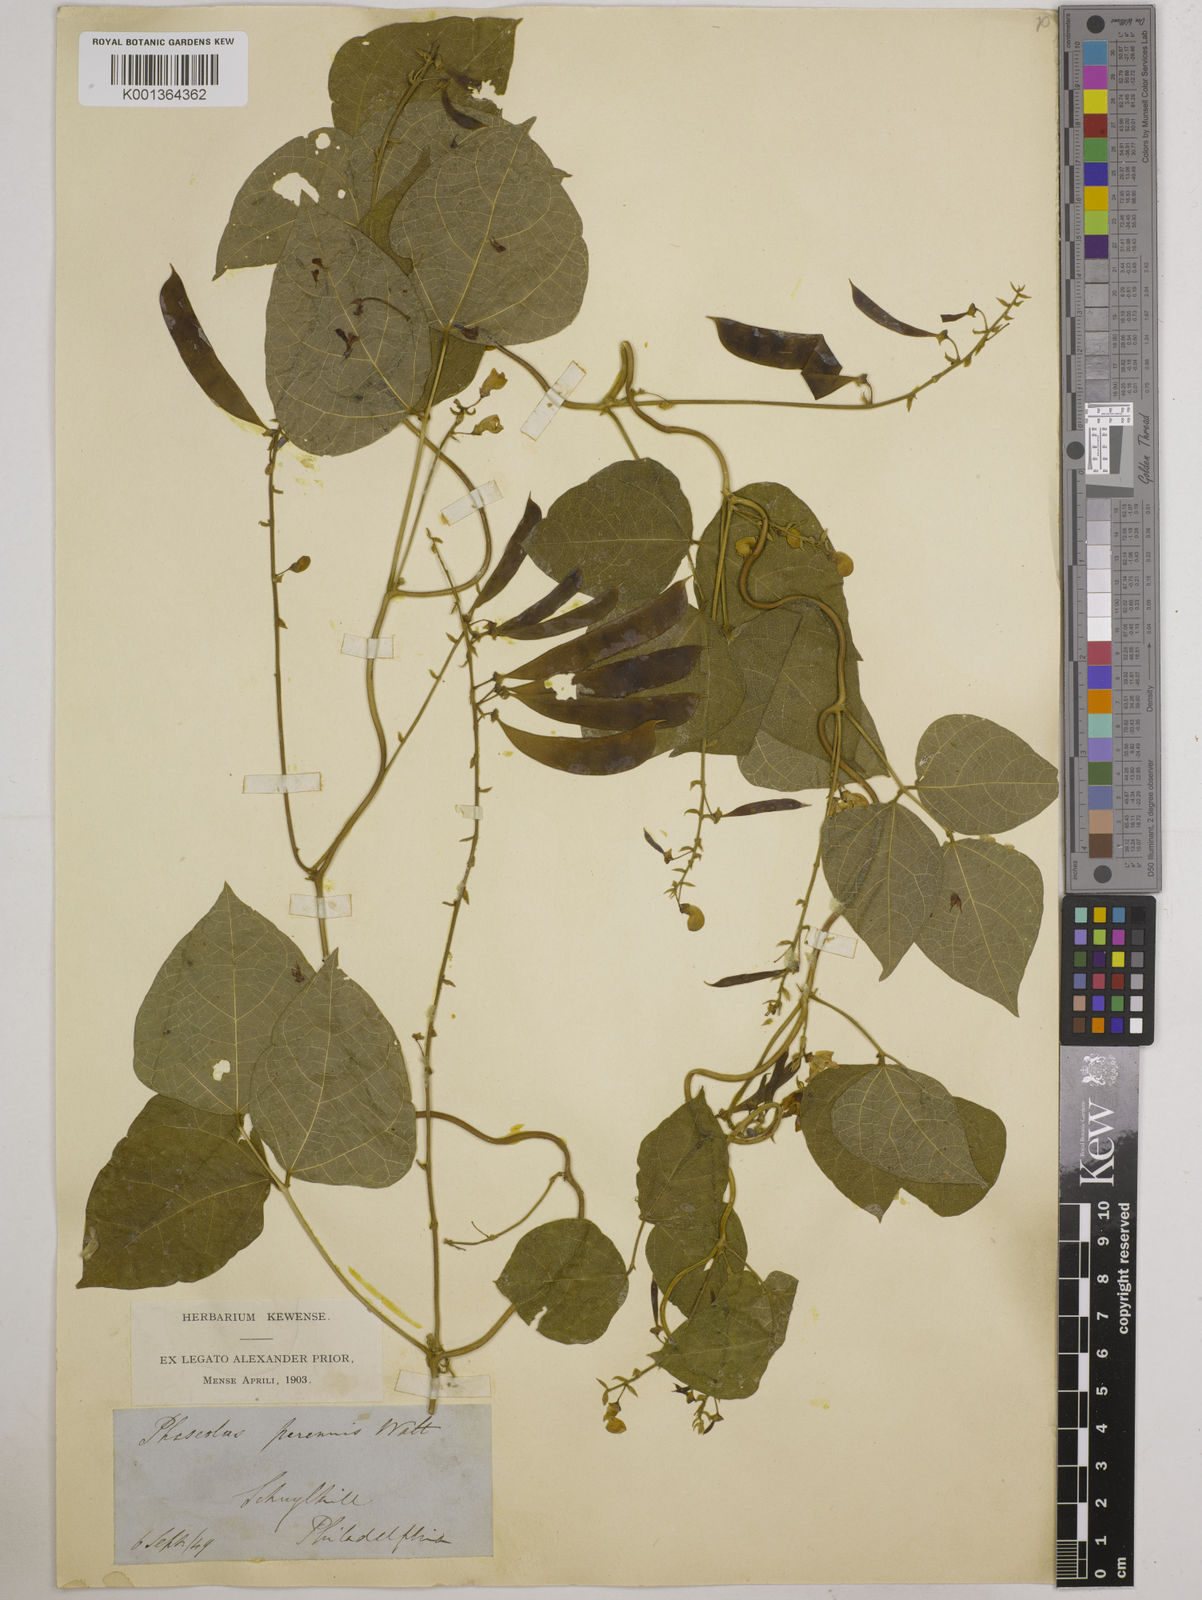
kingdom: Plantae
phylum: Tracheophyta
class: Magnoliopsida
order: Fabales
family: Fabaceae
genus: Phaseolus
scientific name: Phaseolus
